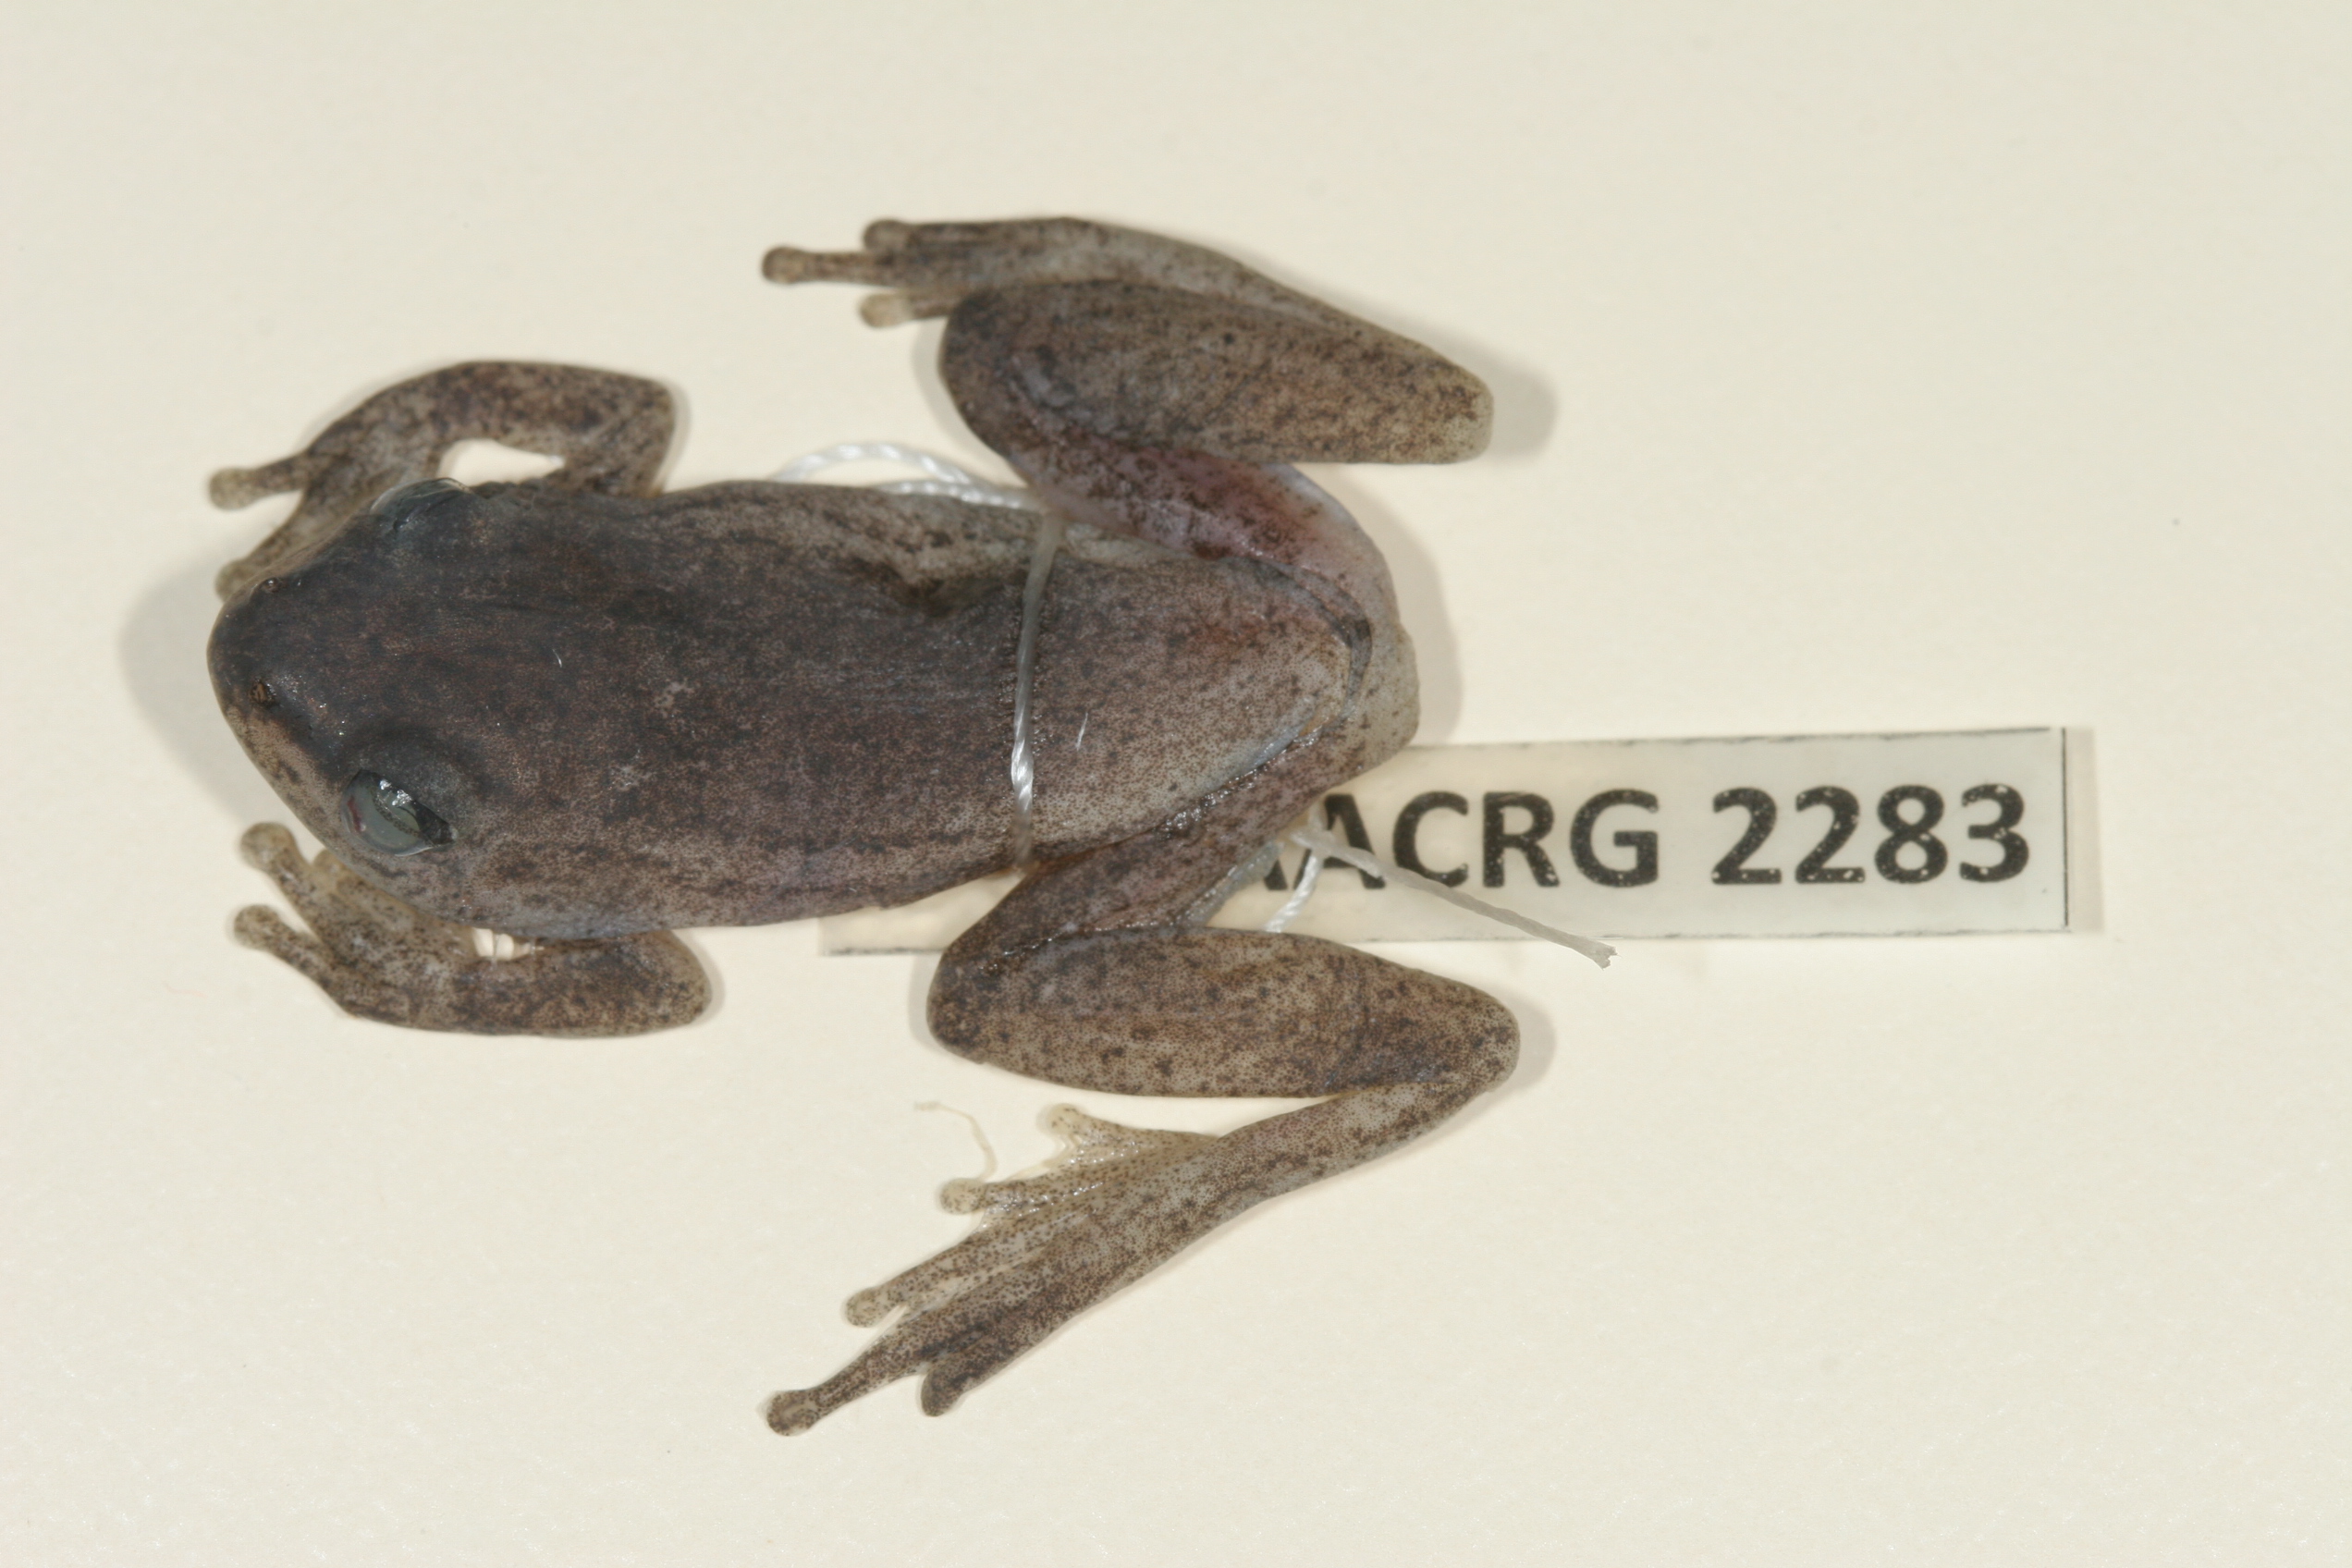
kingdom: Animalia
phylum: Chordata
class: Amphibia
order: Anura
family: Hyperoliidae
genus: Hyperolius
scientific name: Hyperolius argus
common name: Argus reed frog
